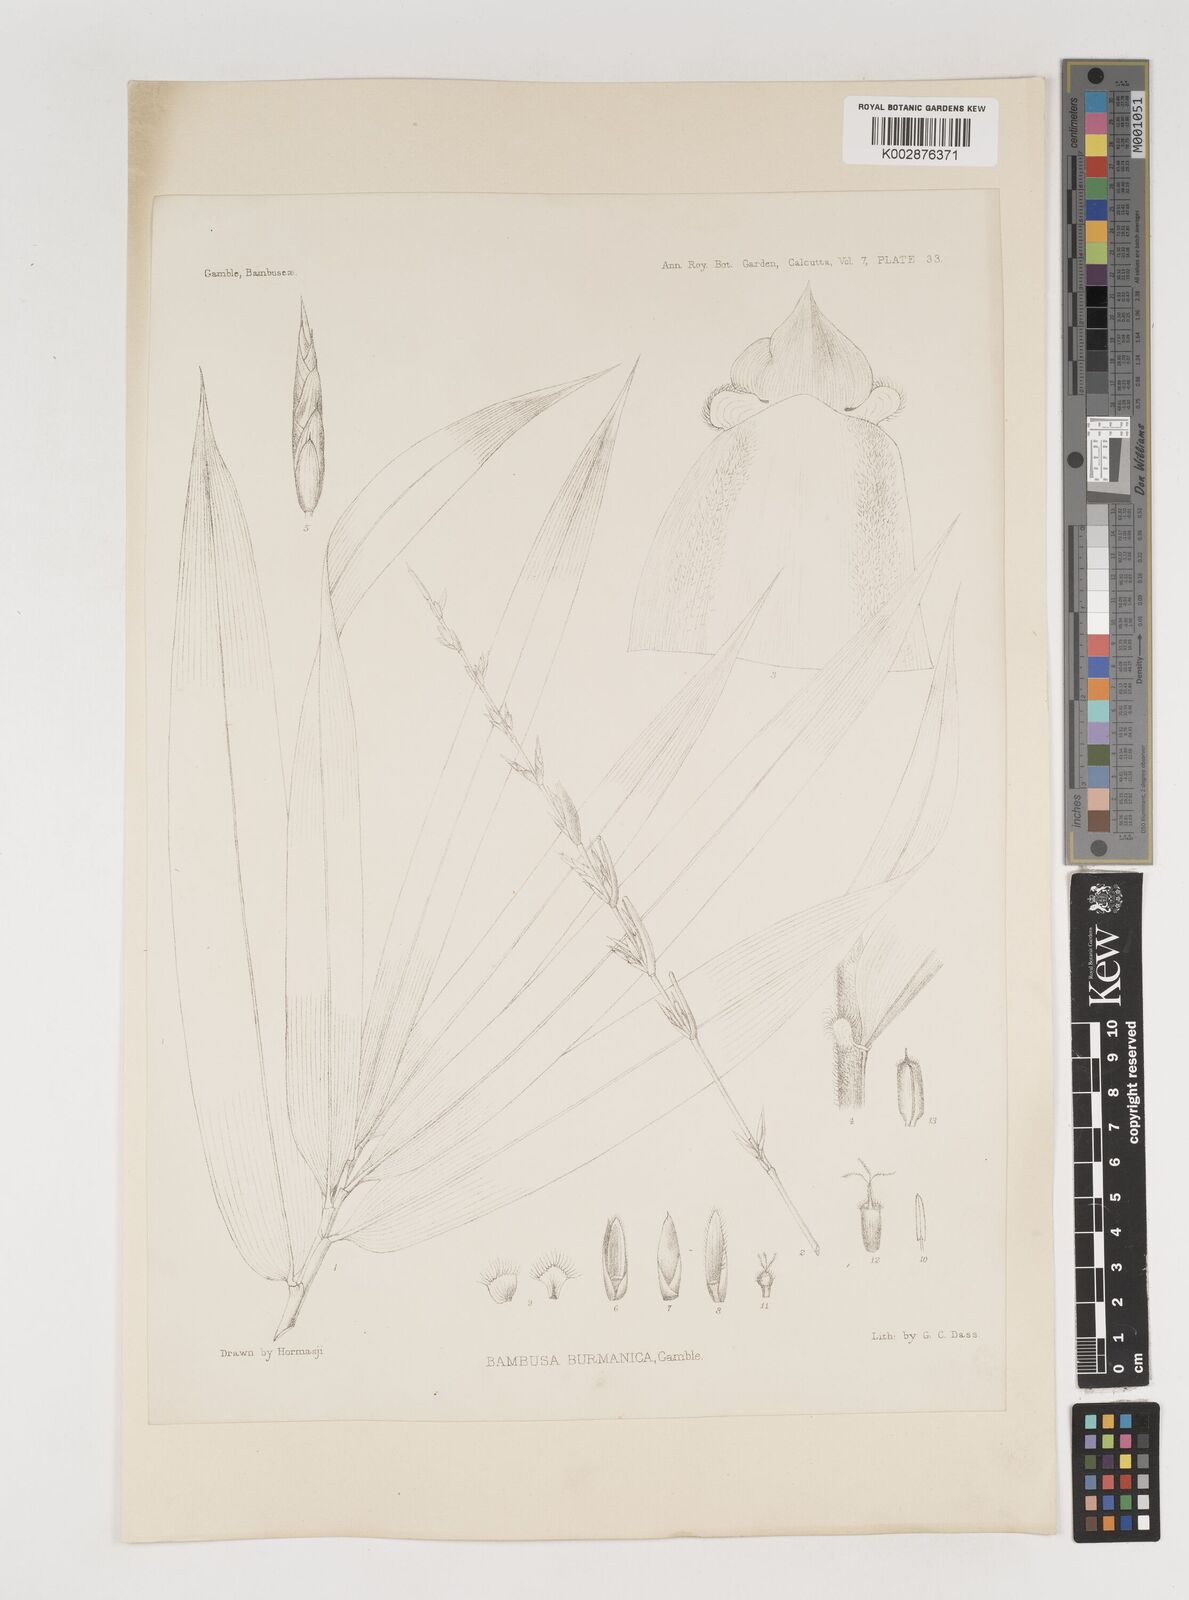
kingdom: Plantae
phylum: Tracheophyta
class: Liliopsida
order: Poales
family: Poaceae
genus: Bambusa
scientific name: Bambusa burmanica
